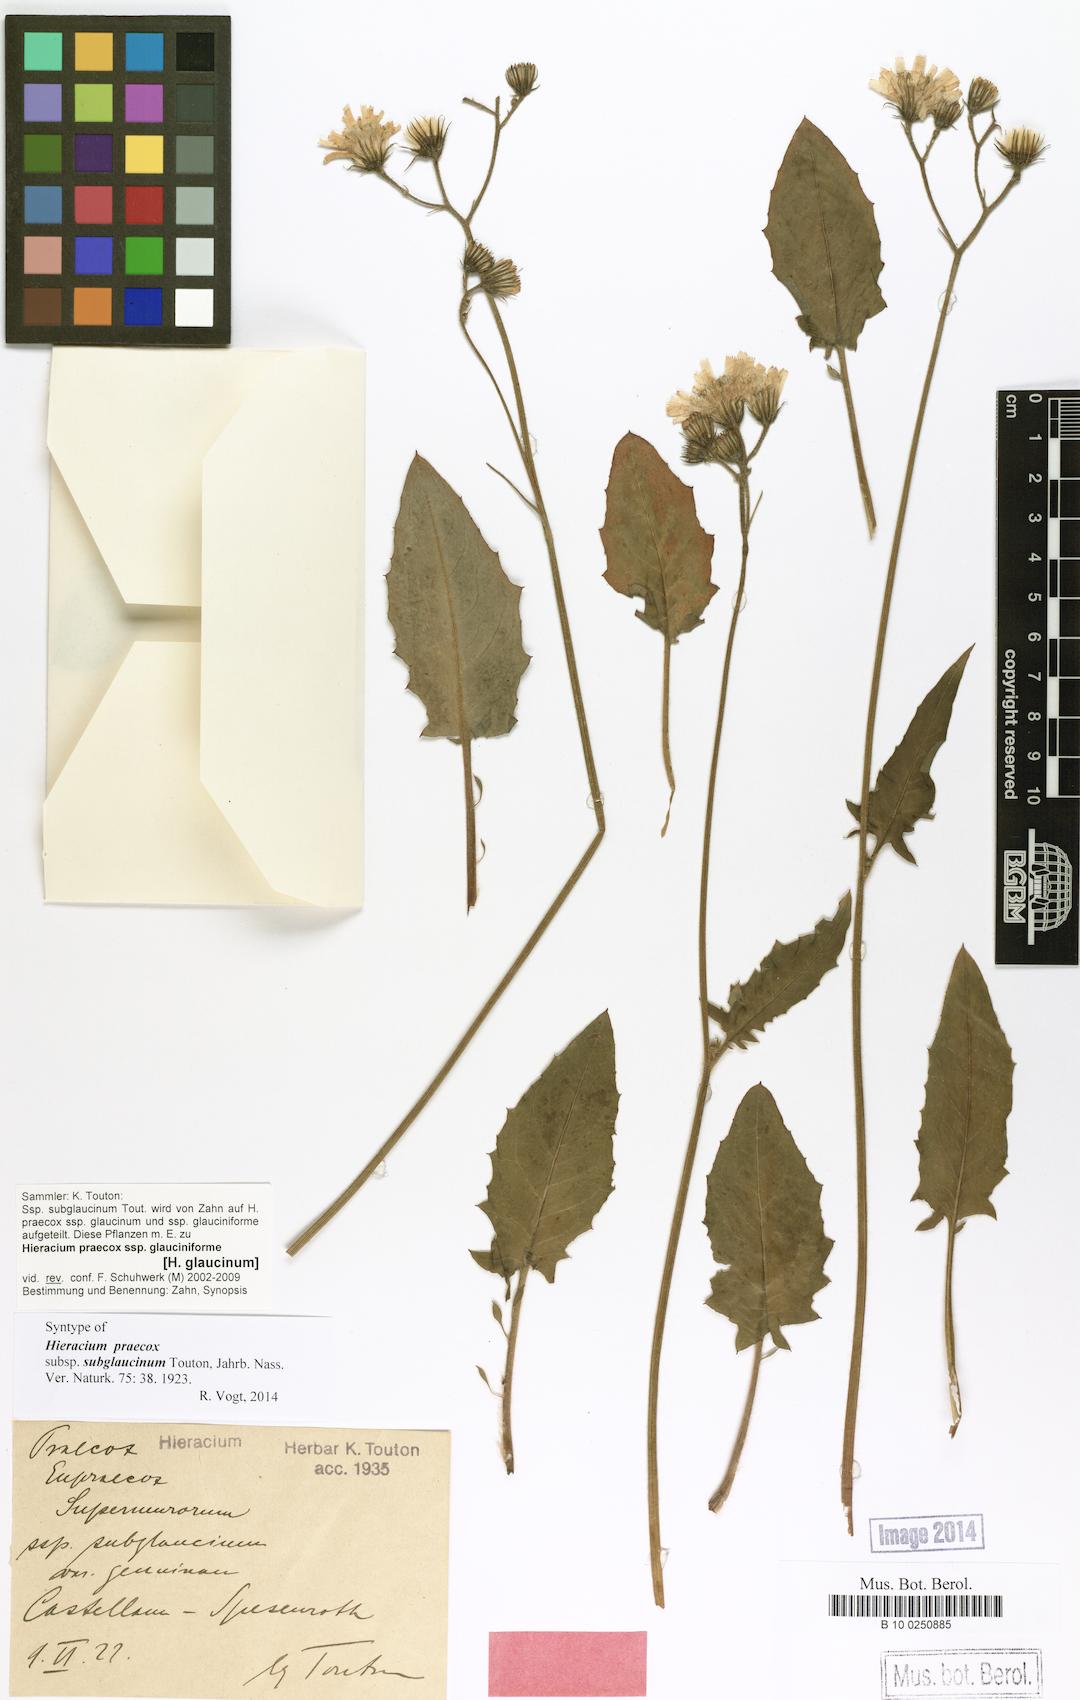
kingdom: Plantae
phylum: Tracheophyta
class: Magnoliopsida
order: Asterales
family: Asteraceae
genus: Hieracium
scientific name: Hieracium glaucinum
